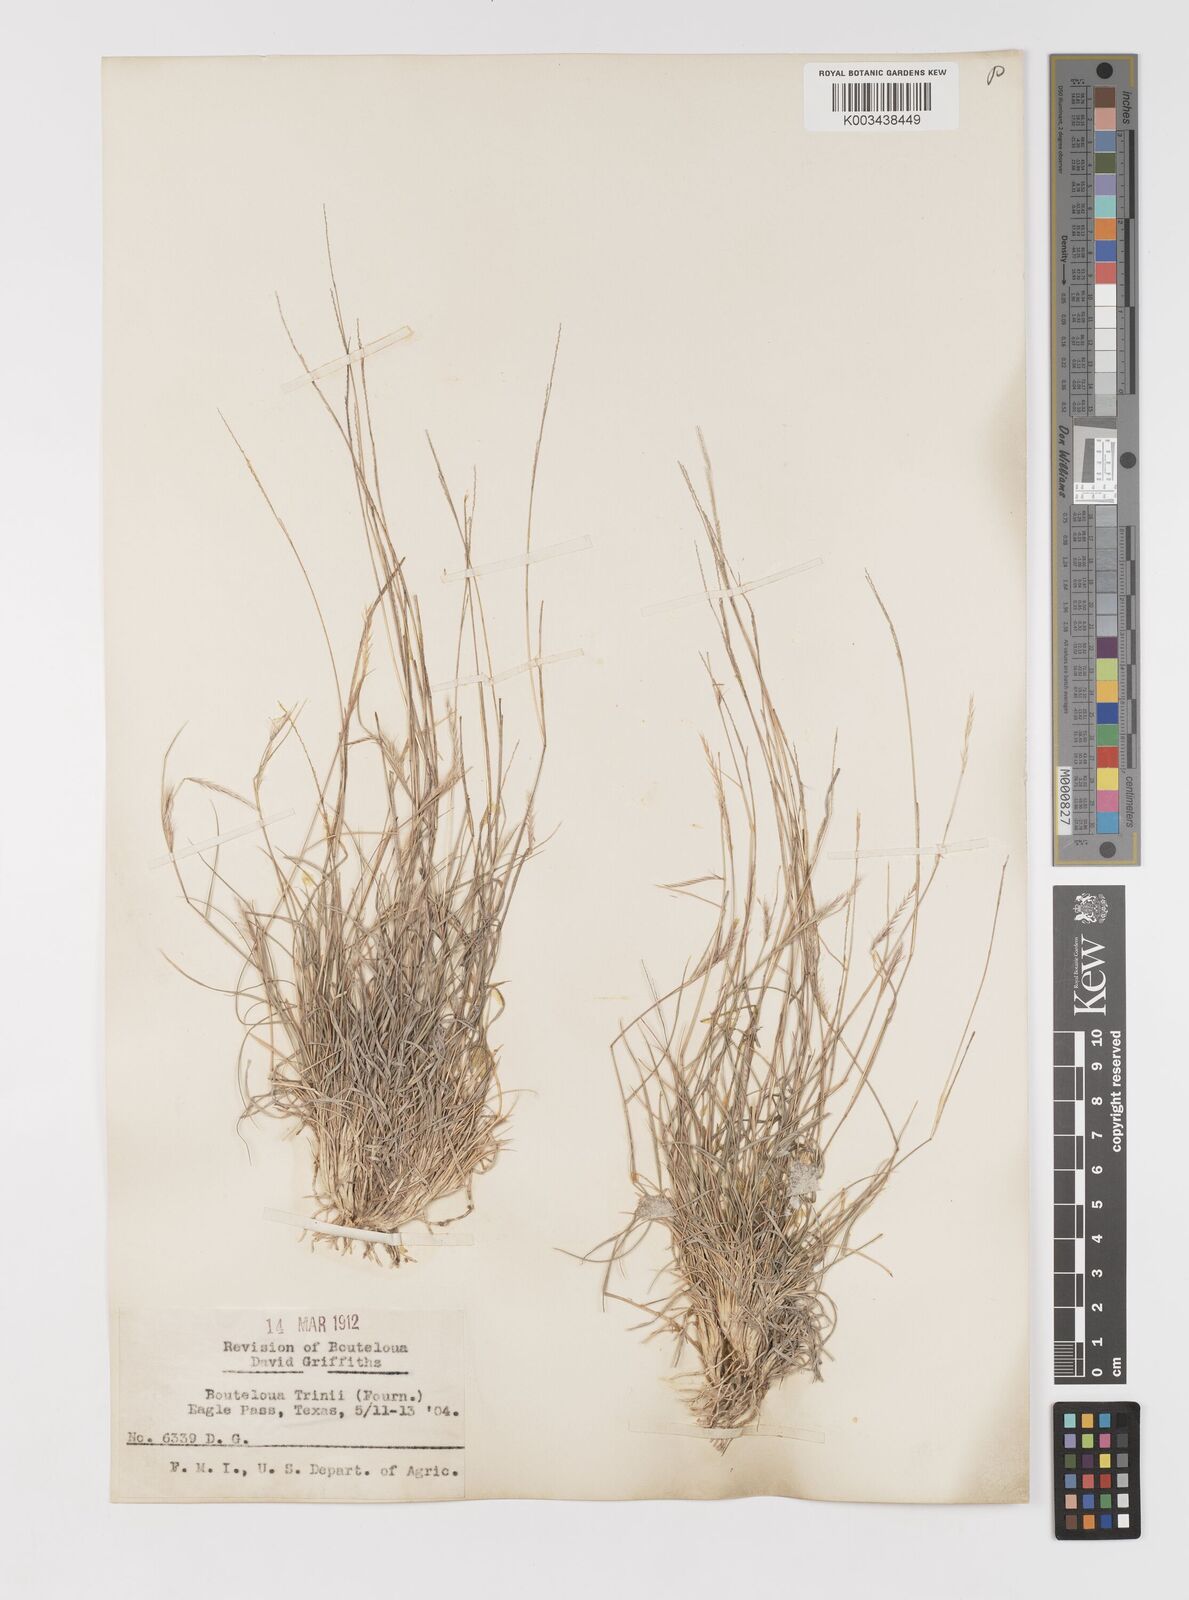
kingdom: Plantae
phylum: Tracheophyta
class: Liliopsida
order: Poales
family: Poaceae
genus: Bouteloua
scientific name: Bouteloua trifida
